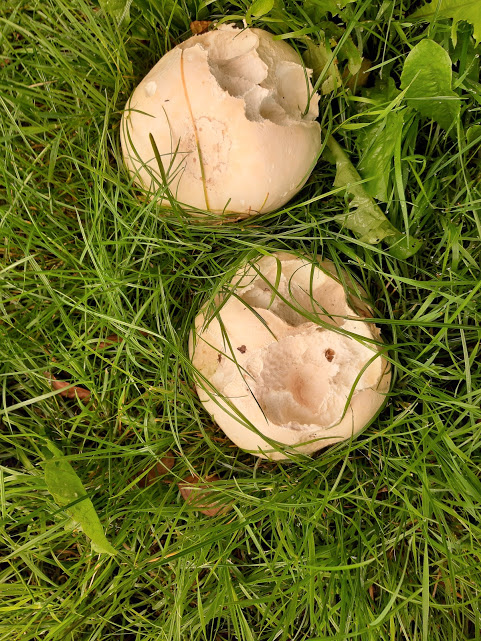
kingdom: Fungi
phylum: Basidiomycota
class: Agaricomycetes
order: Agaricales
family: Lycoperdaceae
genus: Calvatia
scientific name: Calvatia gigantea
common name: kæmpestøvbold
